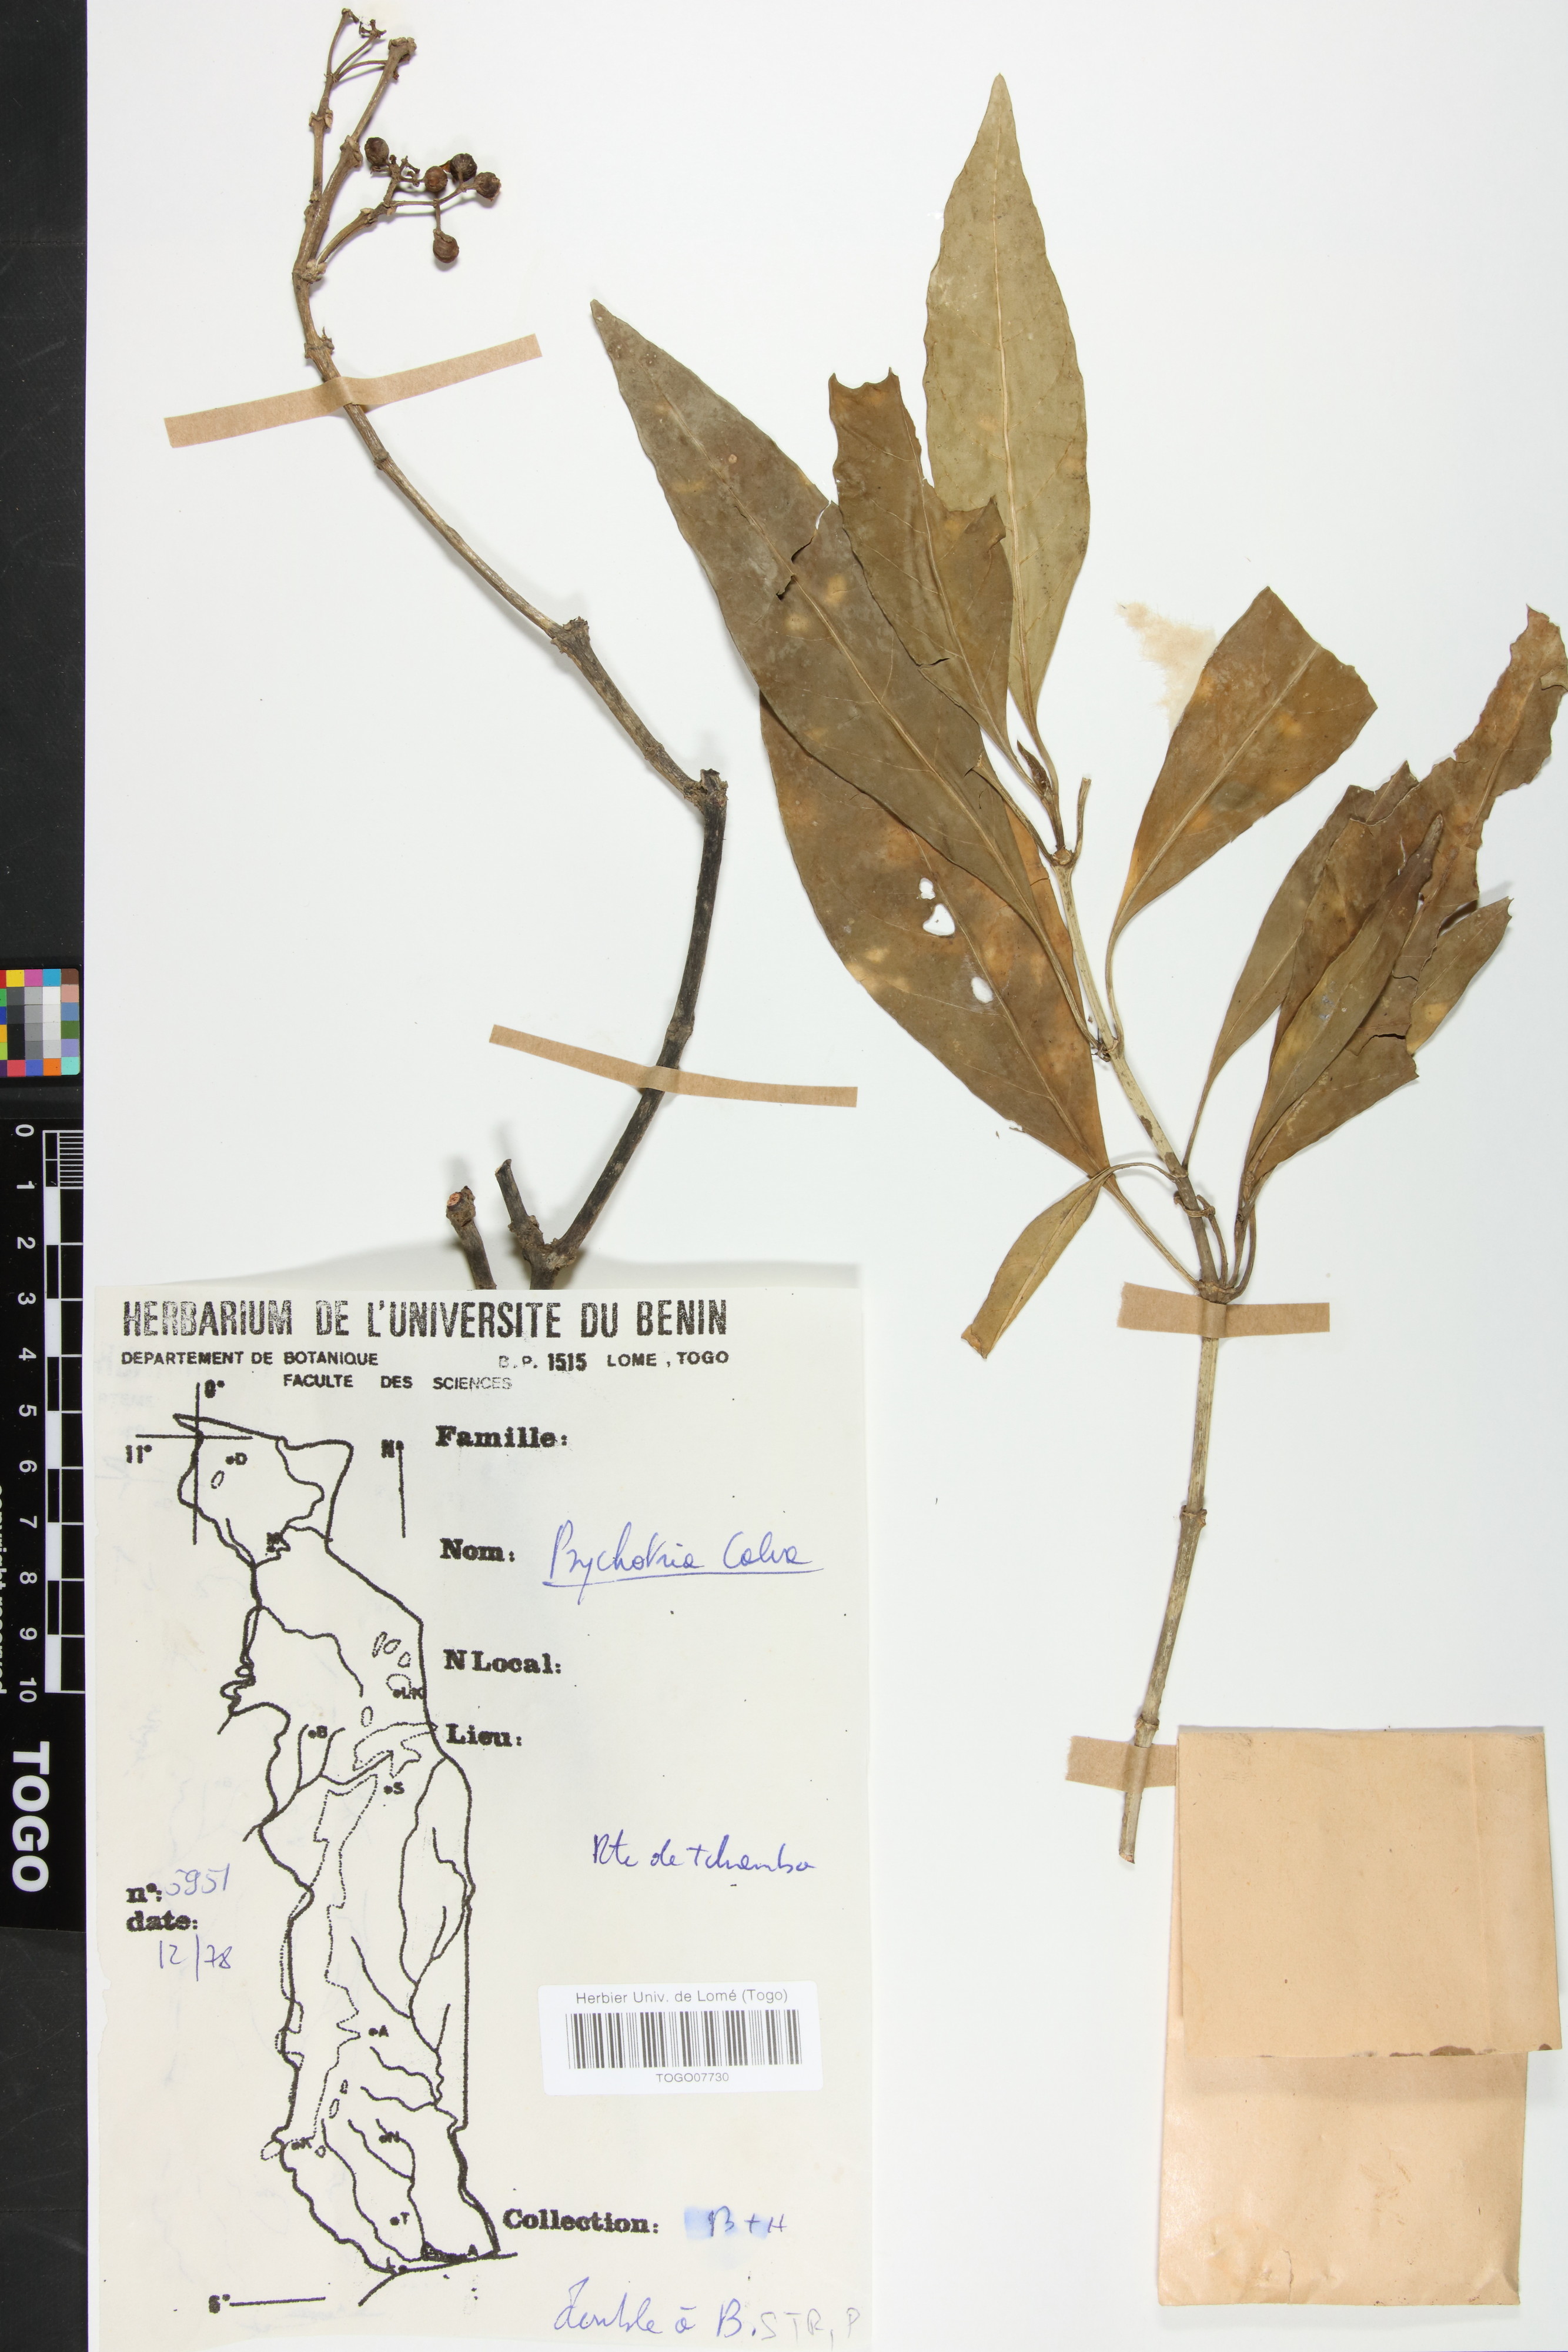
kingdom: Plantae
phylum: Tracheophyta
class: Magnoliopsida
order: Gentianales
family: Rubiaceae
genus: Psychotria
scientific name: Psychotria calva
